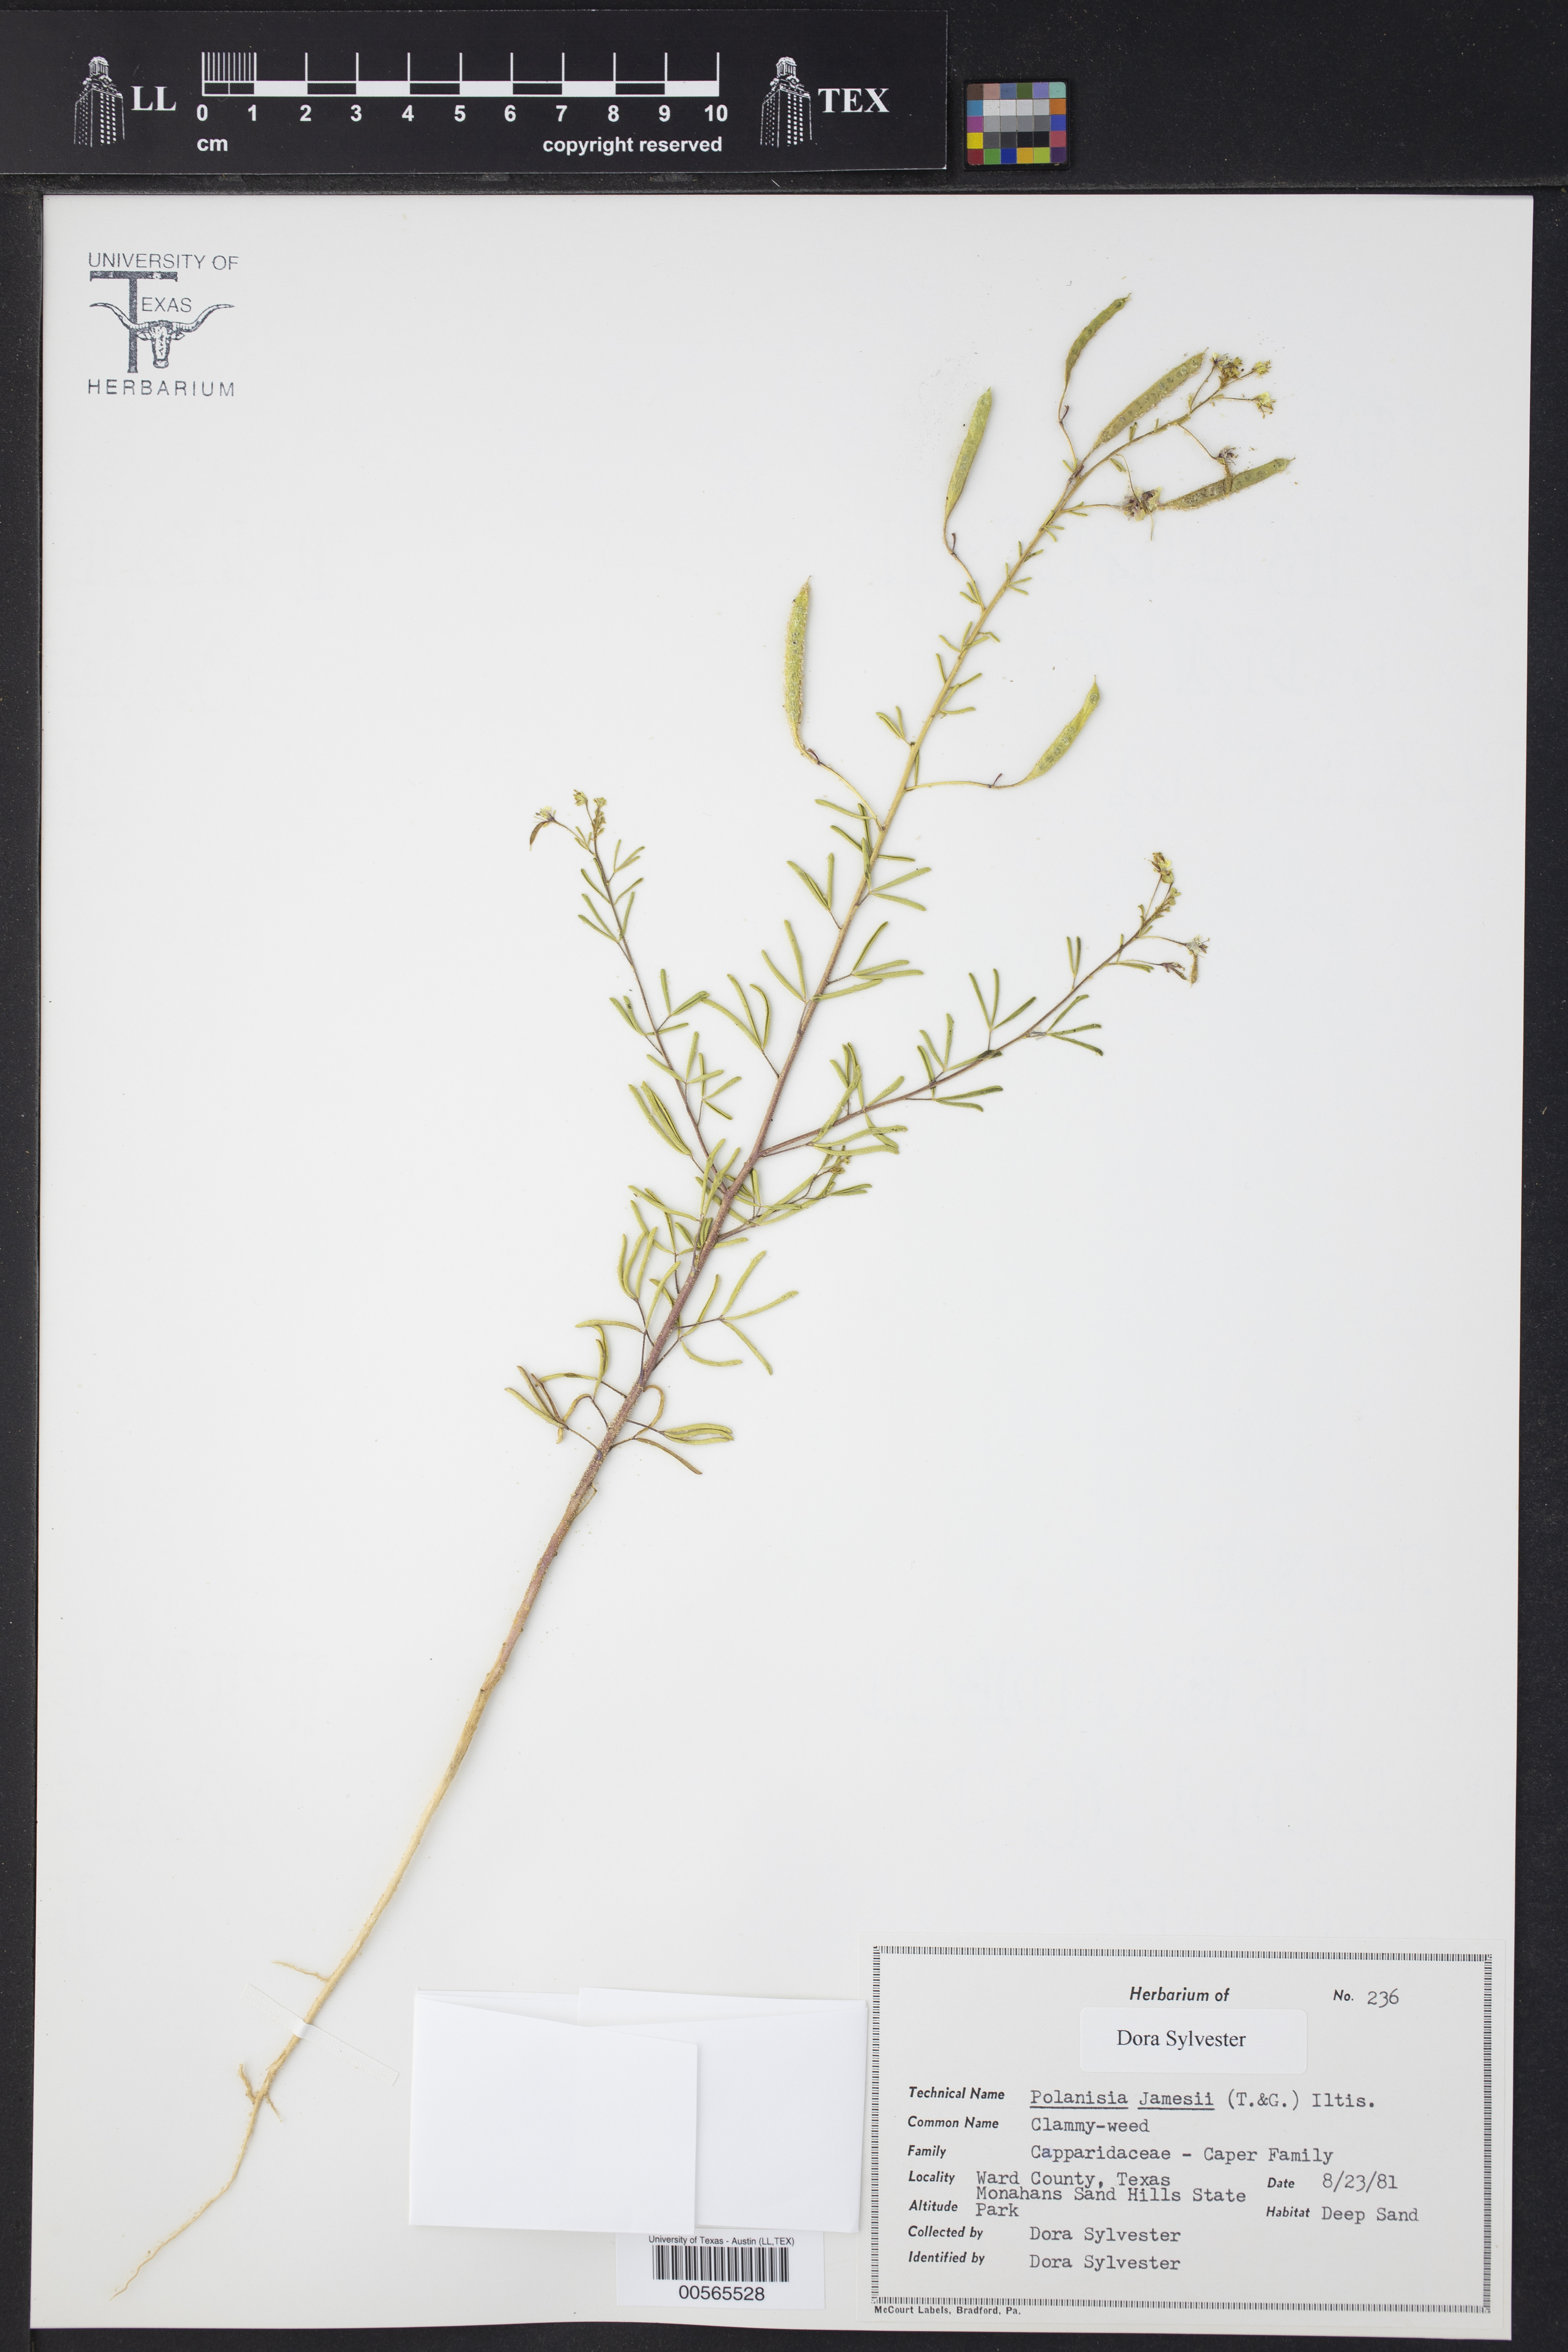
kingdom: Plantae
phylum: Tracheophyta
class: Magnoliopsida
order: Brassicales
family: Cleomaceae
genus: Polanisia
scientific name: Polanisia jamesii
